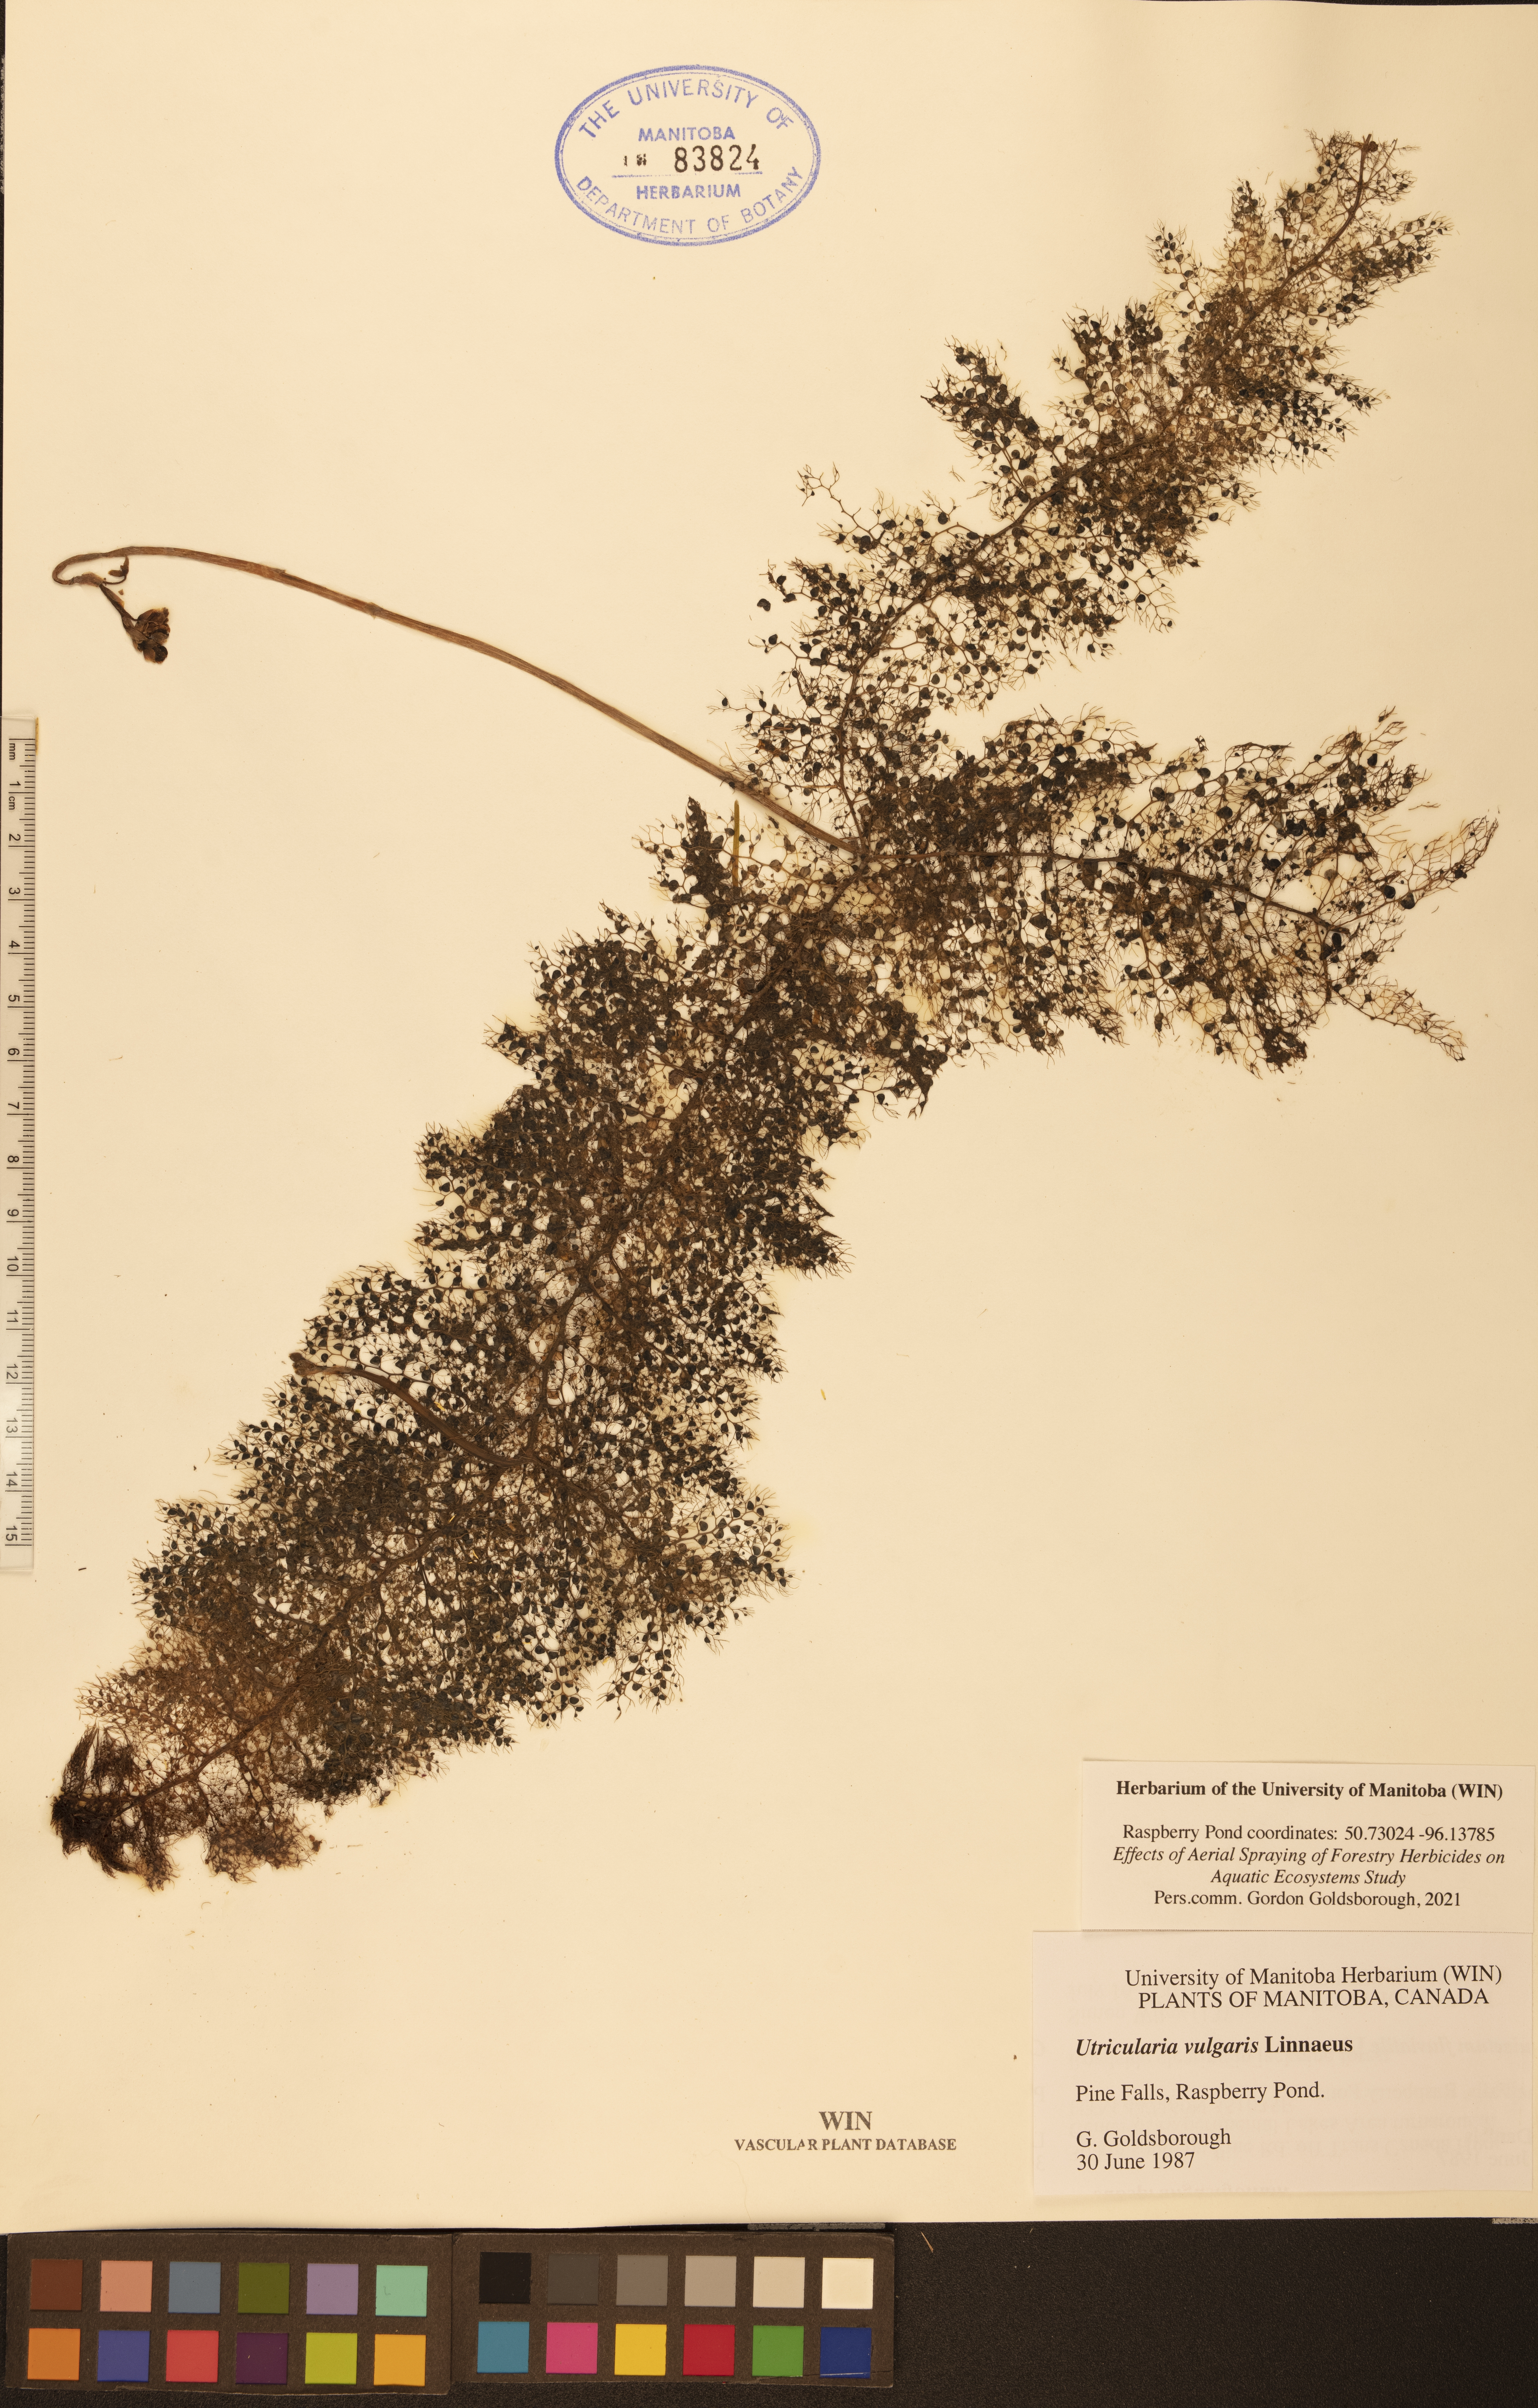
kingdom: Plantae
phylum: Tracheophyta
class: Magnoliopsida
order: Lamiales
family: Lentibulariaceae
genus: Utricularia
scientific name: Utricularia vulgaris
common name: Greater bladderwort
